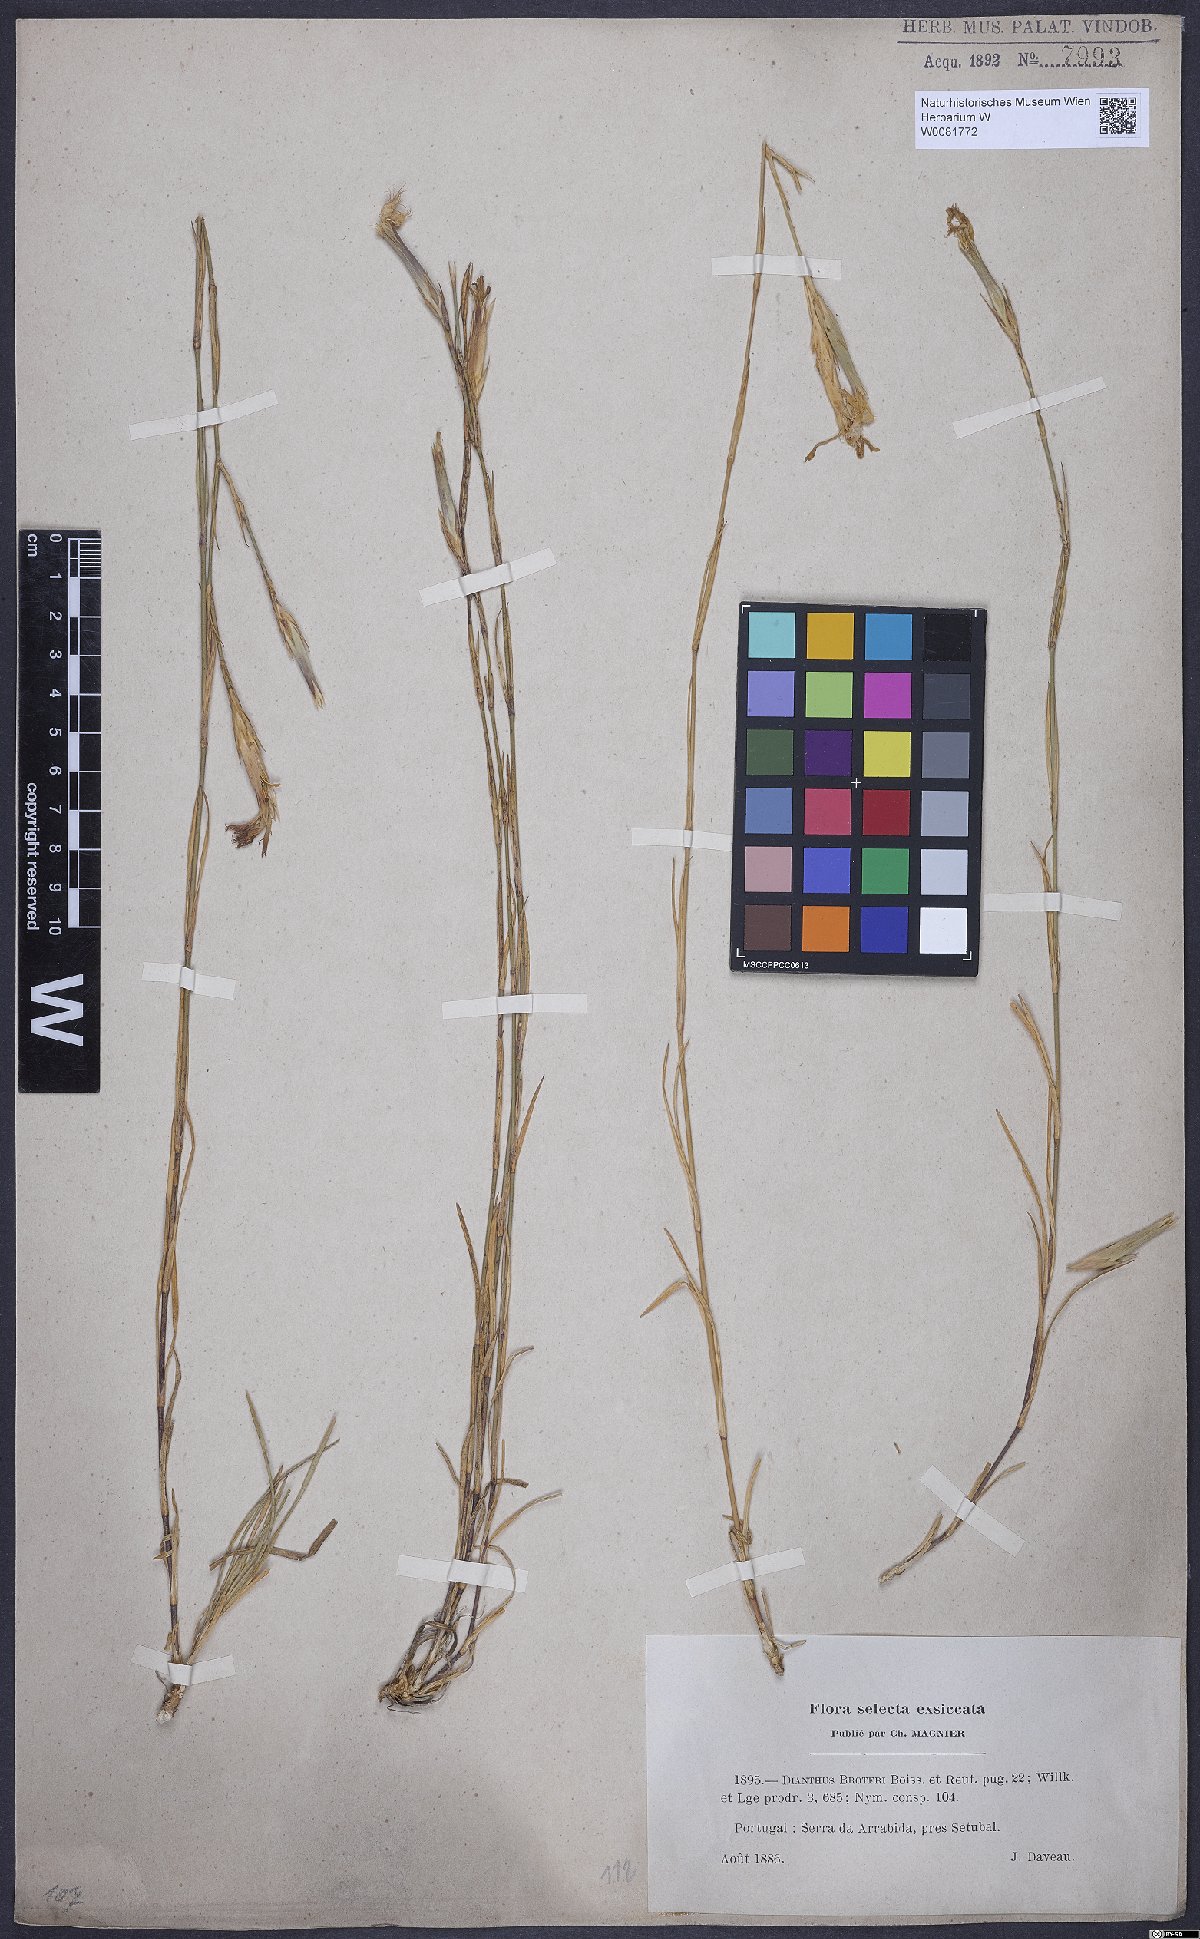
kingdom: Plantae
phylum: Tracheophyta
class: Magnoliopsida
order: Caryophyllales
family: Caryophyllaceae
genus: Dianthus
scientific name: Dianthus broteri
